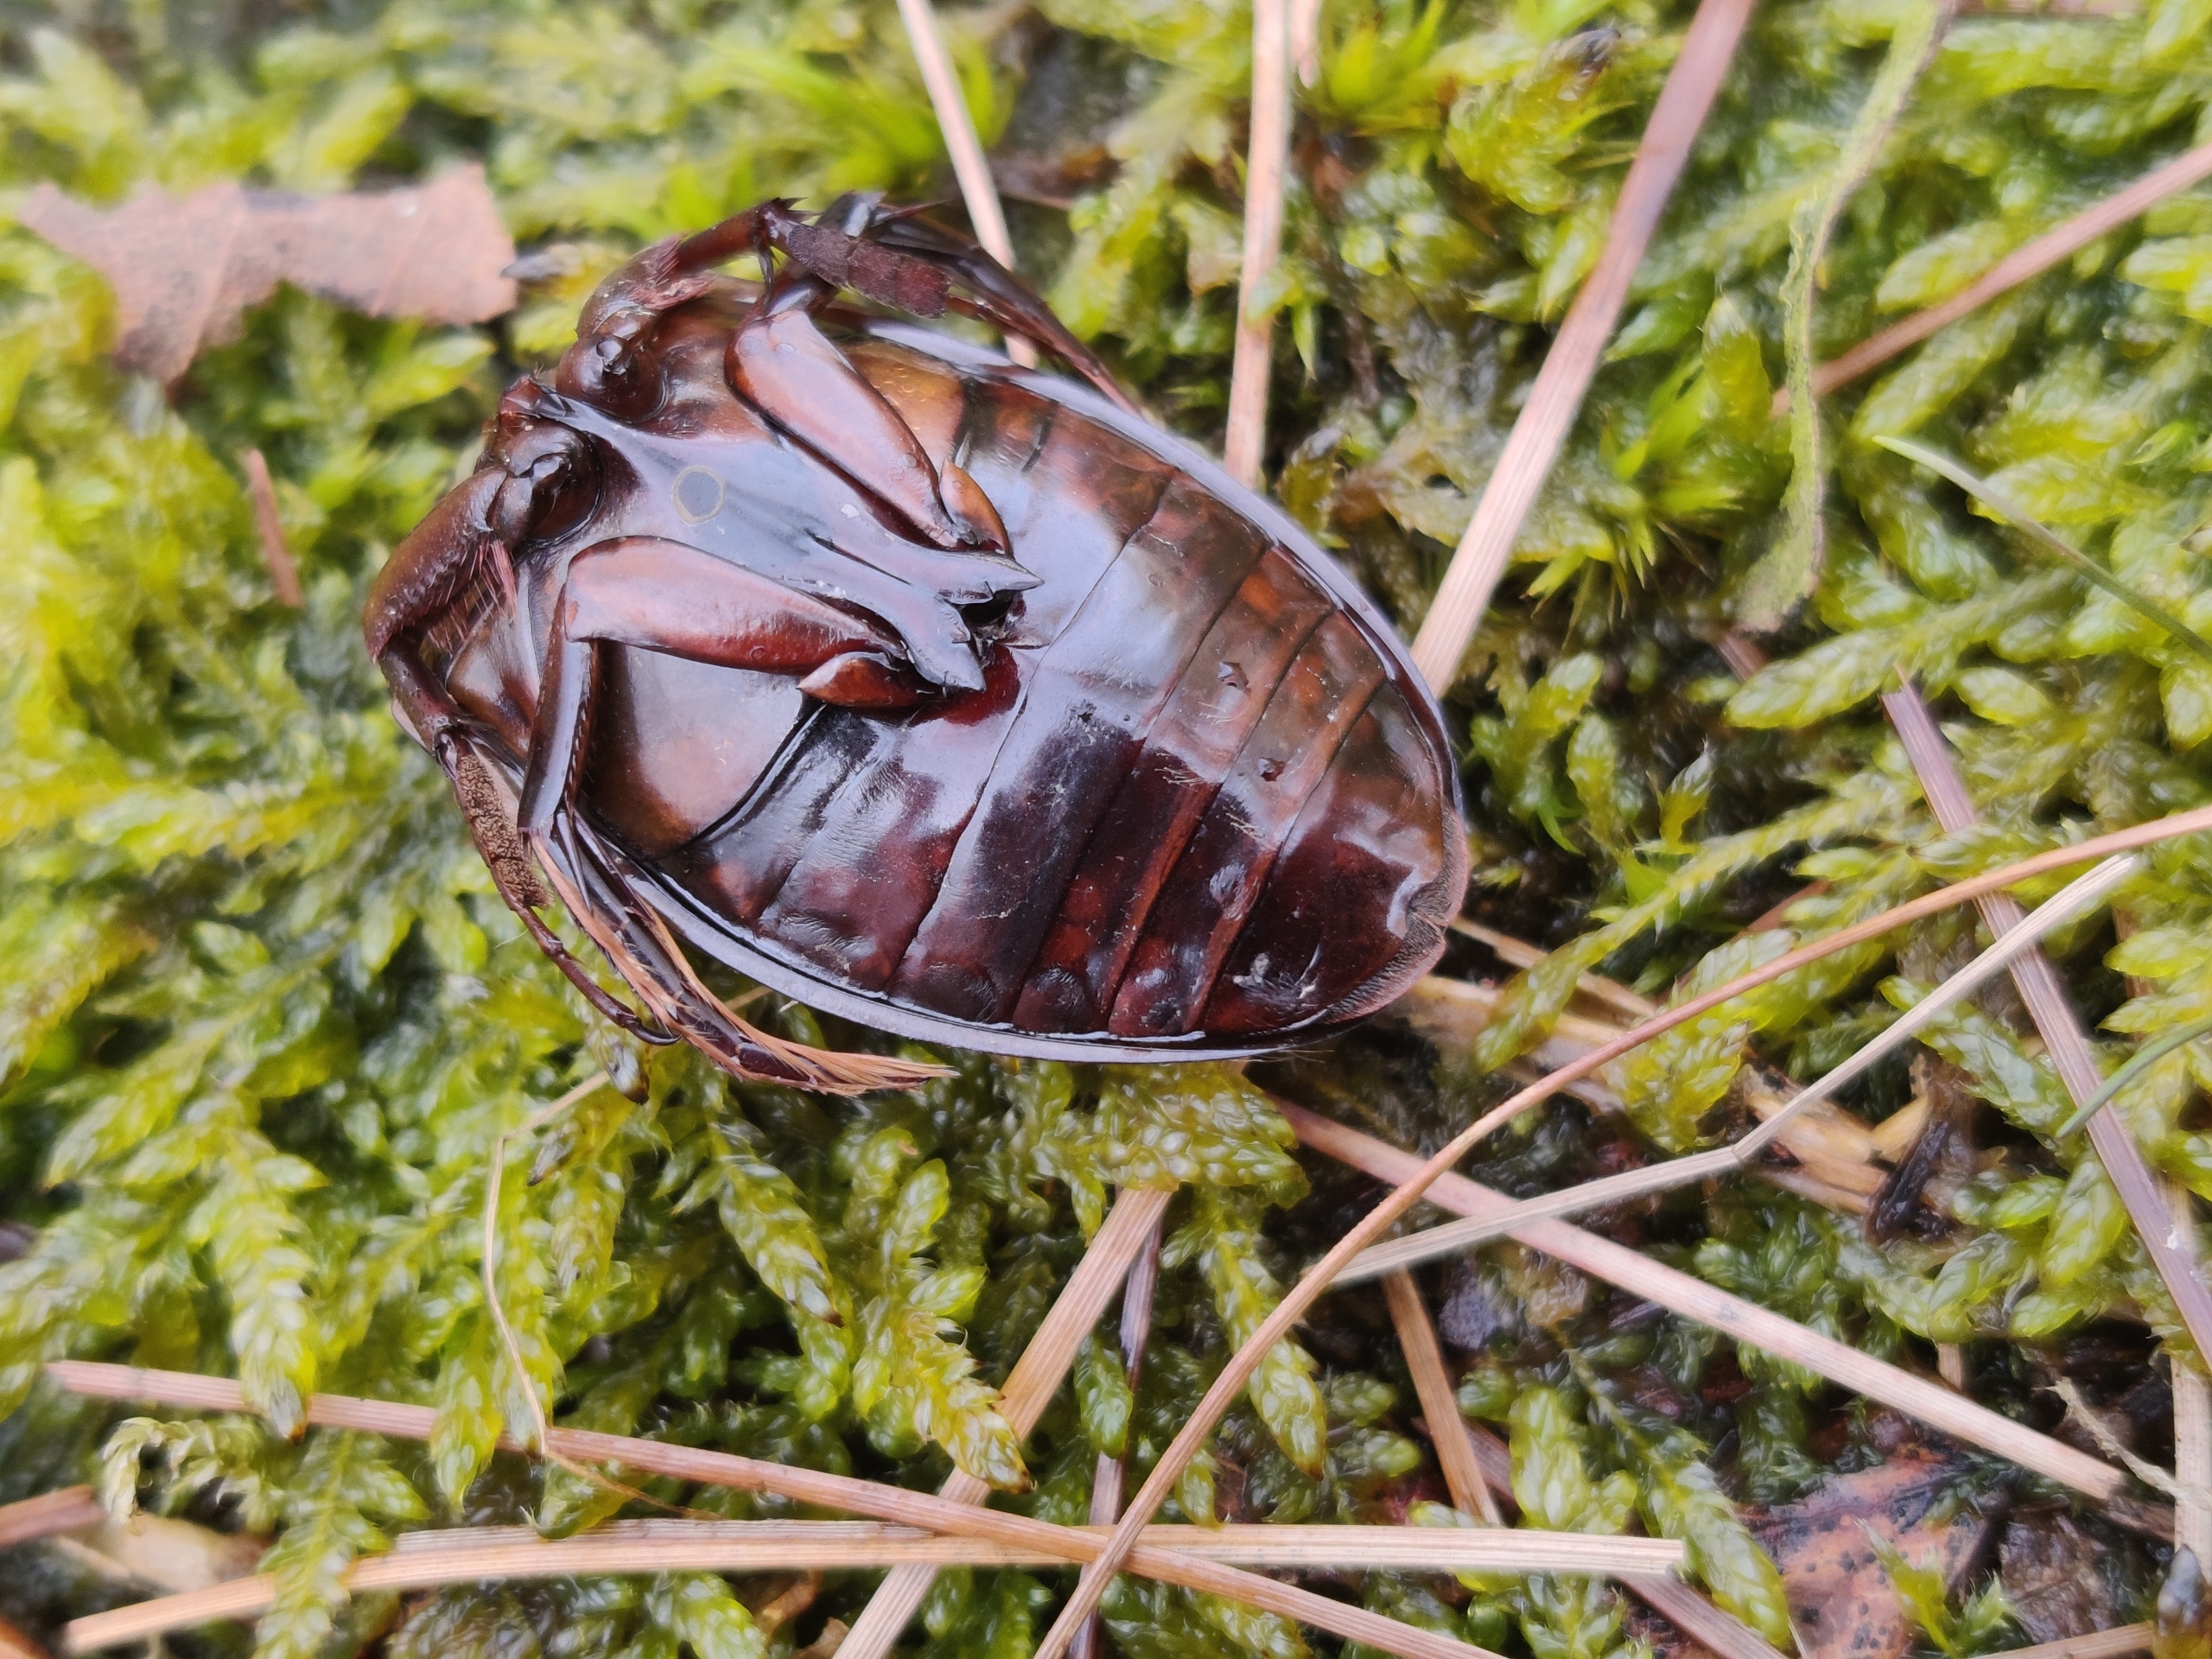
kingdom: Animalia
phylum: Arthropoda
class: Insecta
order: Coleoptera
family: Dytiscidae
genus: Dytiscus
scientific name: Dytiscus marginalis
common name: Stor vandkalv
